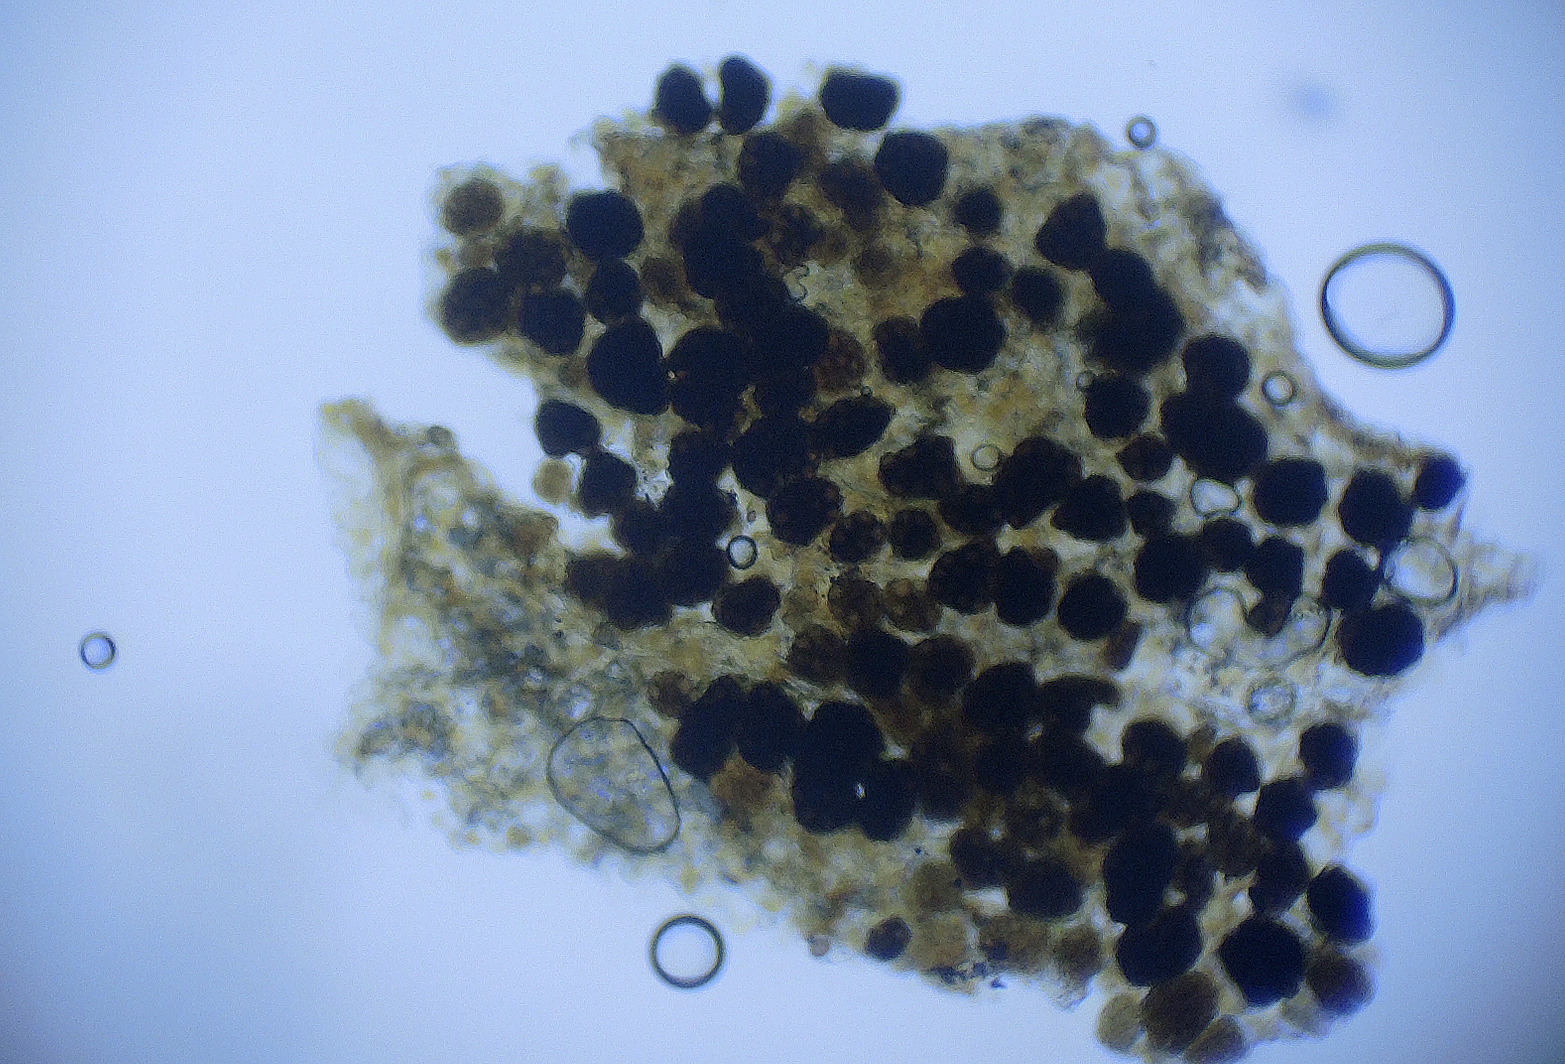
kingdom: Fungi
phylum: Basidiomycota
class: Ustilaginomycetes
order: Urocystidales
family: Urocystidaceae
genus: Urocystis
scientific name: Urocystis trientalis
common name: Chickweed wintergreen smut
